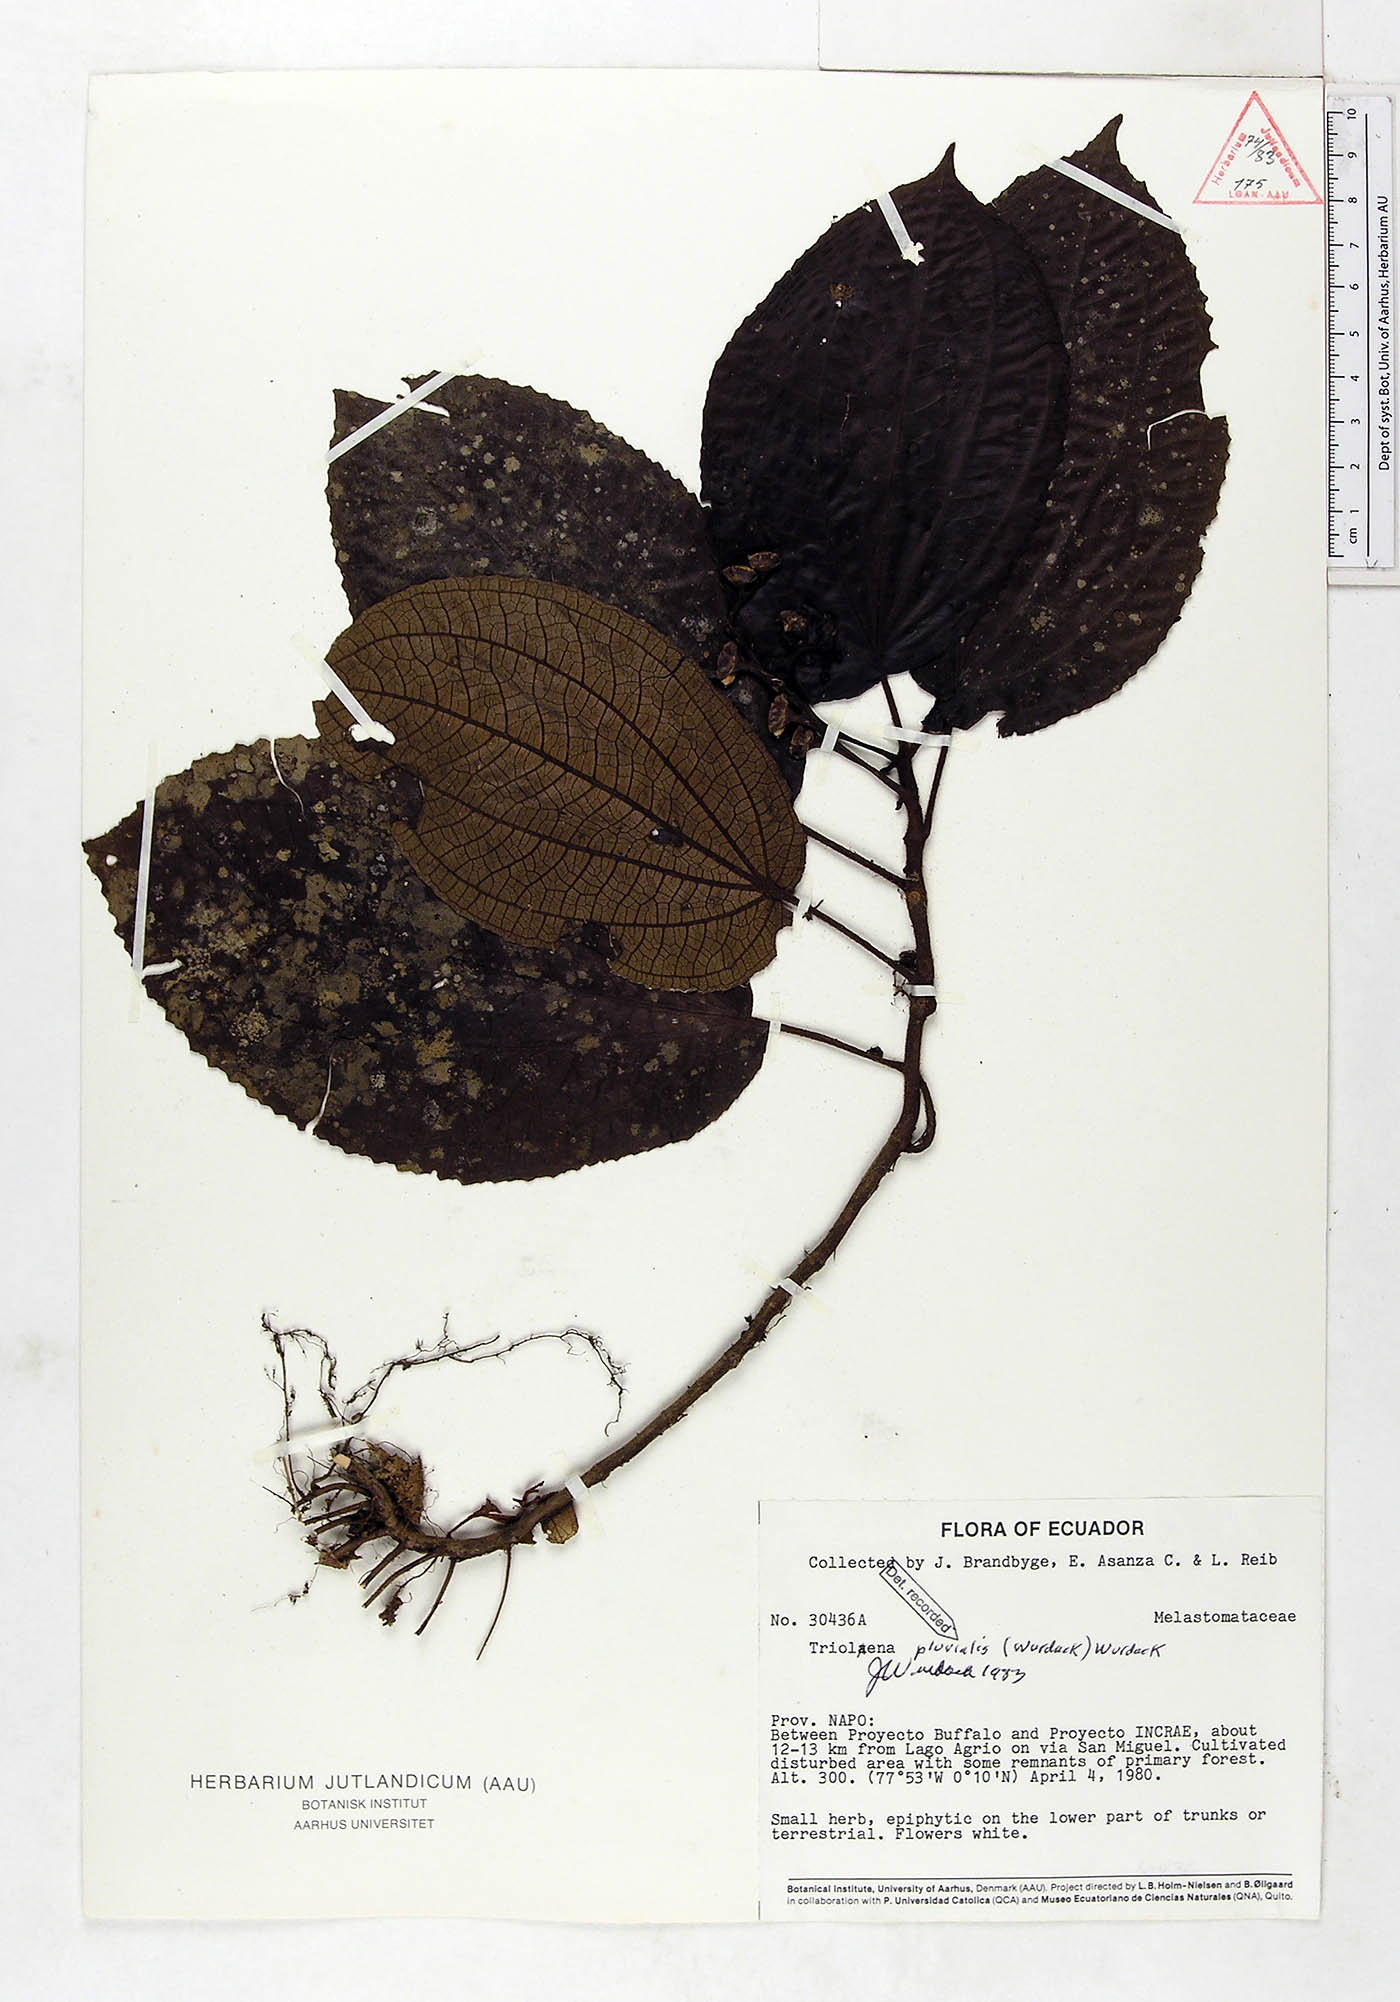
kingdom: Plantae
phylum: Tracheophyta
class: Magnoliopsida
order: Myrtales
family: Melastomataceae
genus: Triolena
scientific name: Triolena pluvialis
